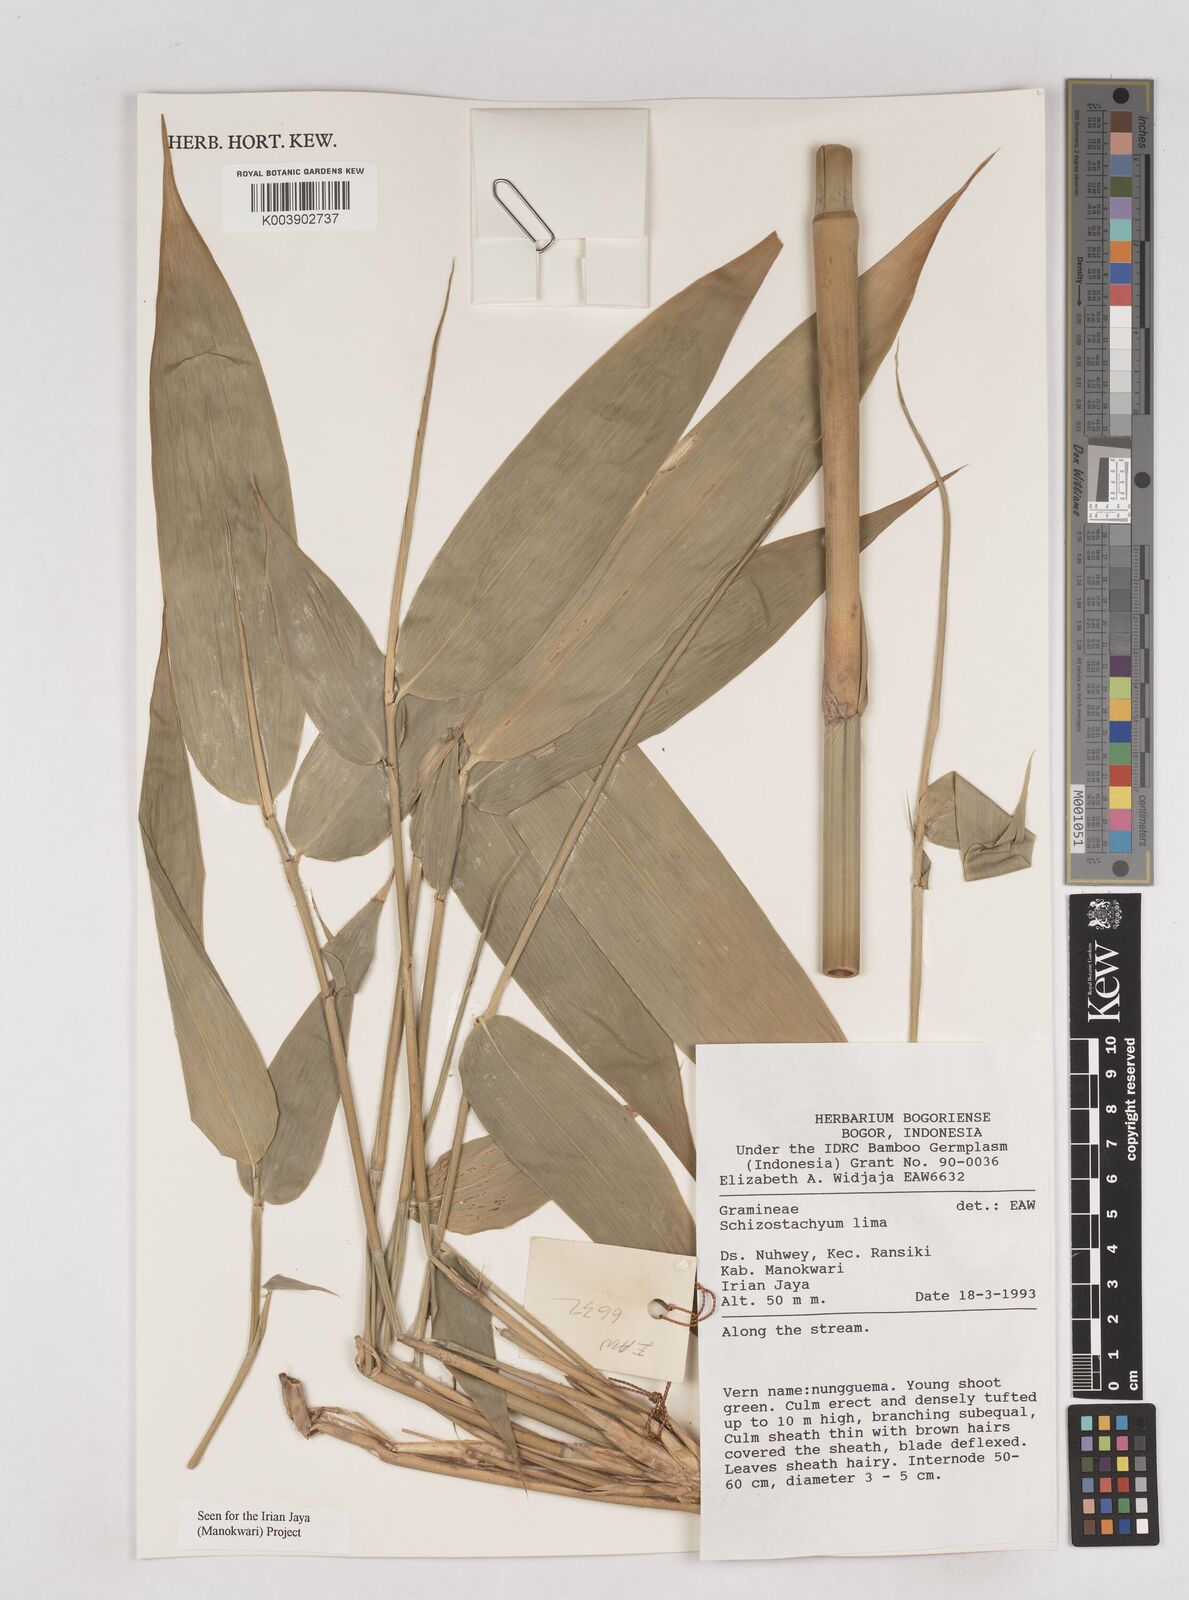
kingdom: Plantae
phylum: Tracheophyta
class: Liliopsida
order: Poales
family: Poaceae
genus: Schizostachyum
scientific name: Schizostachyum
